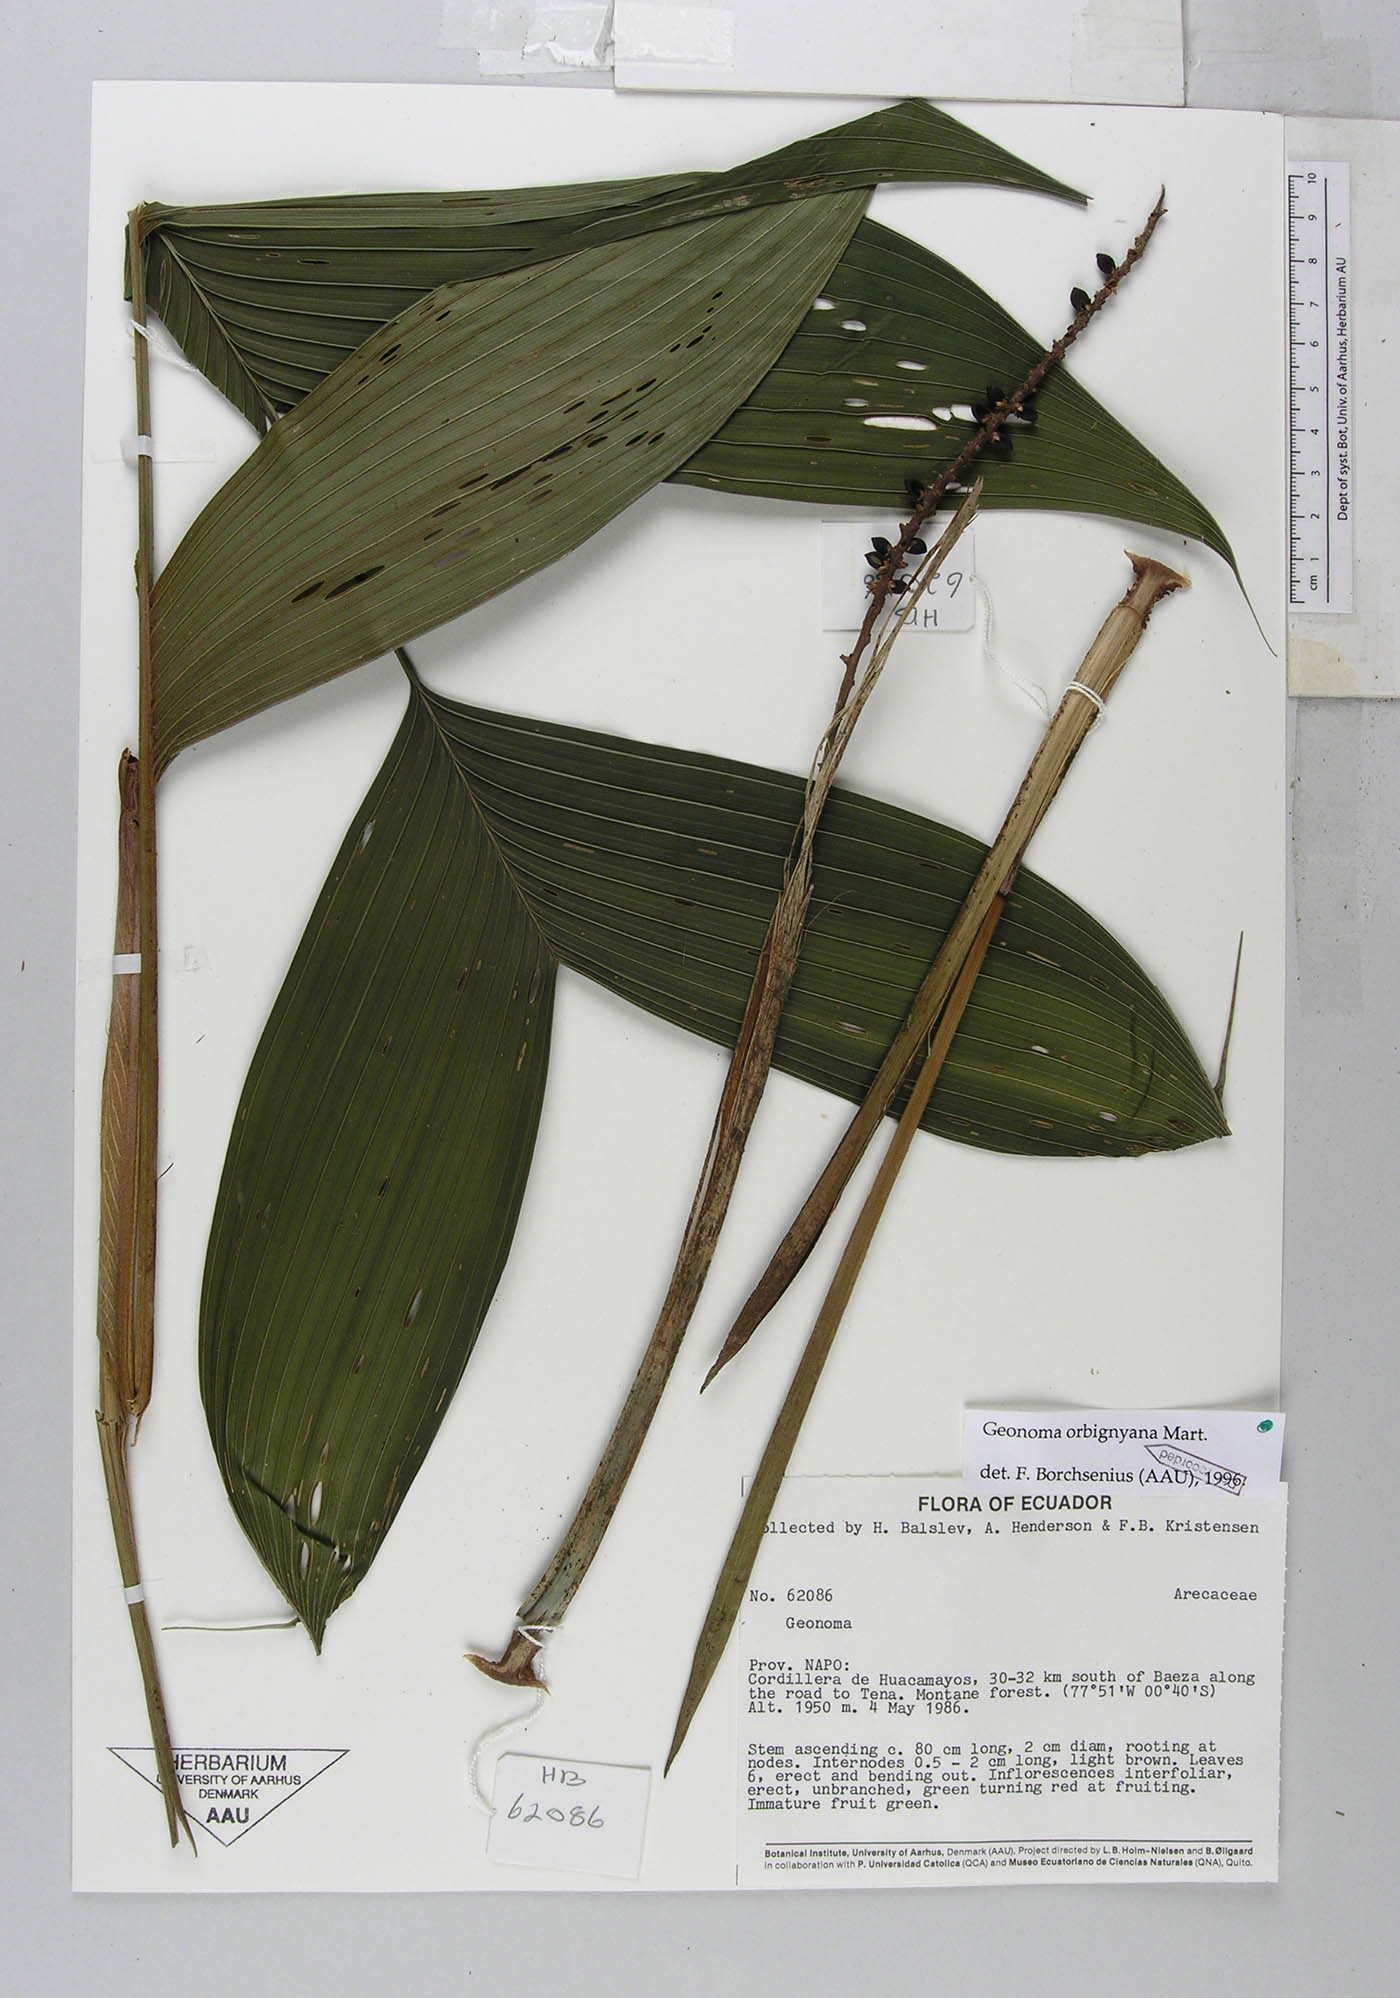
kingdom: Plantae
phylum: Tracheophyta
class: Liliopsida
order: Arecales
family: Arecaceae
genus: Geonoma
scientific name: Geonoma orbignyana
